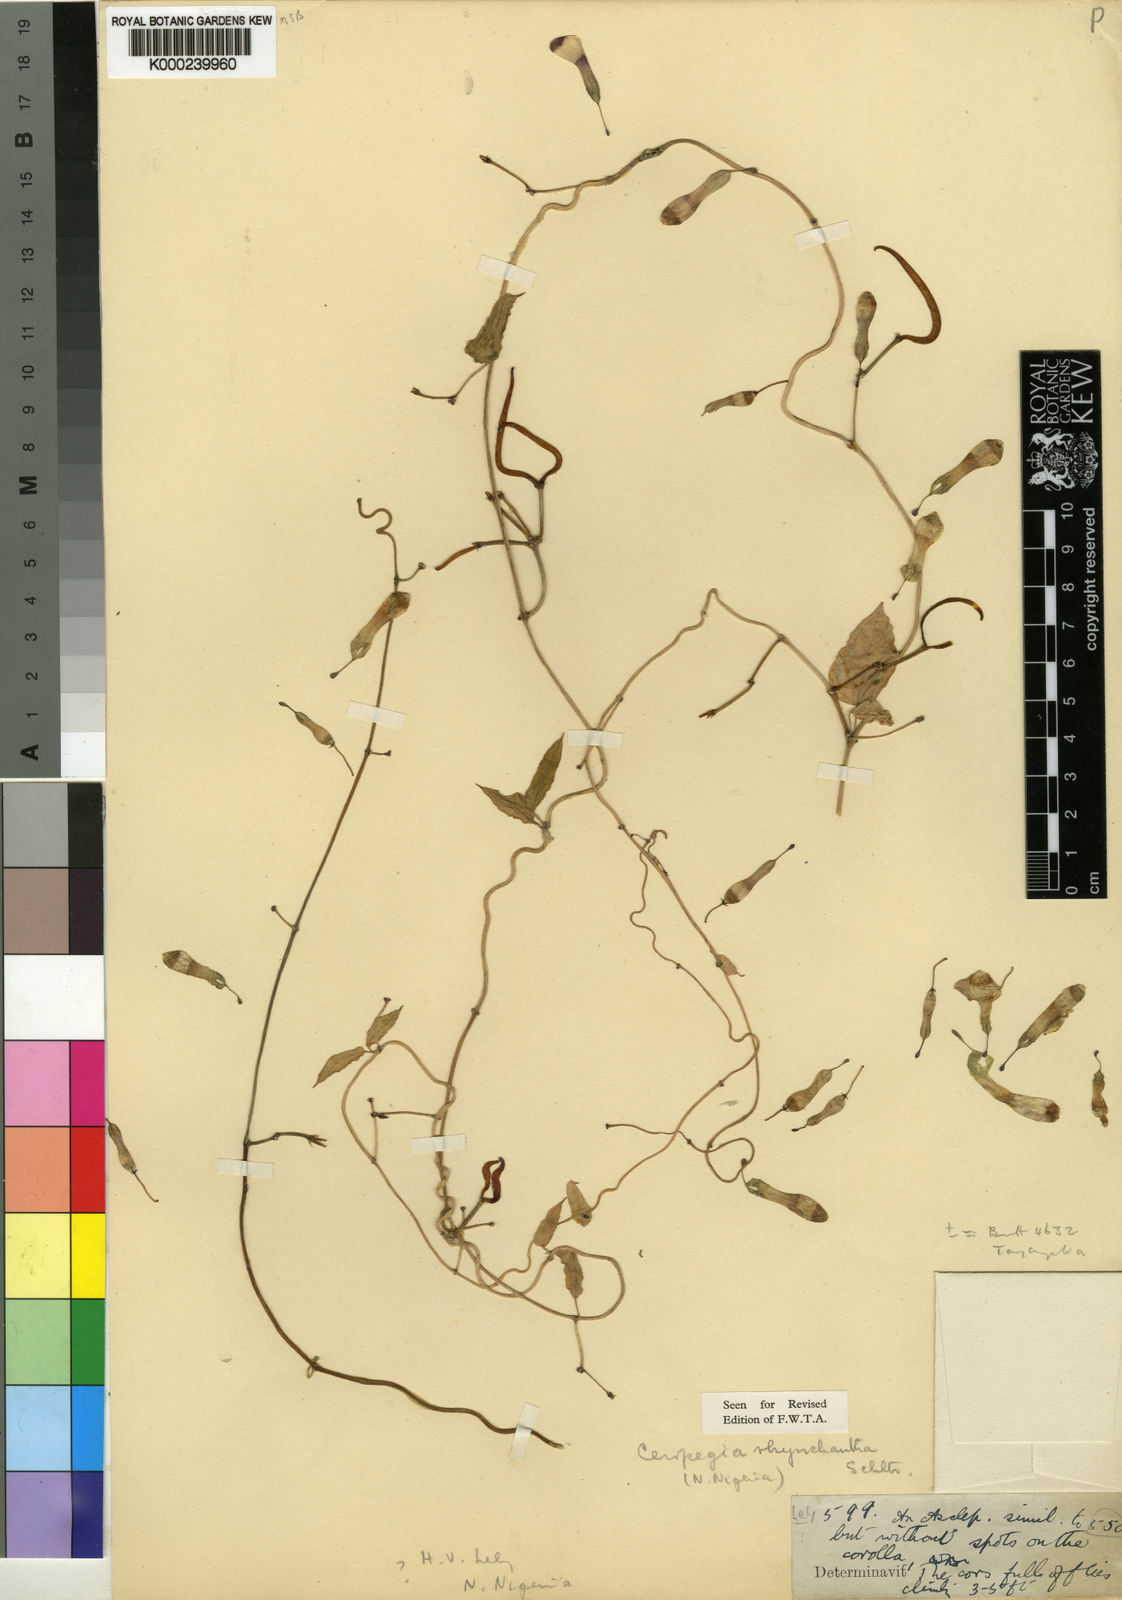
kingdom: Plantae
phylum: Tracheophyta
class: Magnoliopsida
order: Gentianales
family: Apocynaceae
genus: Ceropegia
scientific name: Ceropegia rhynchantha
